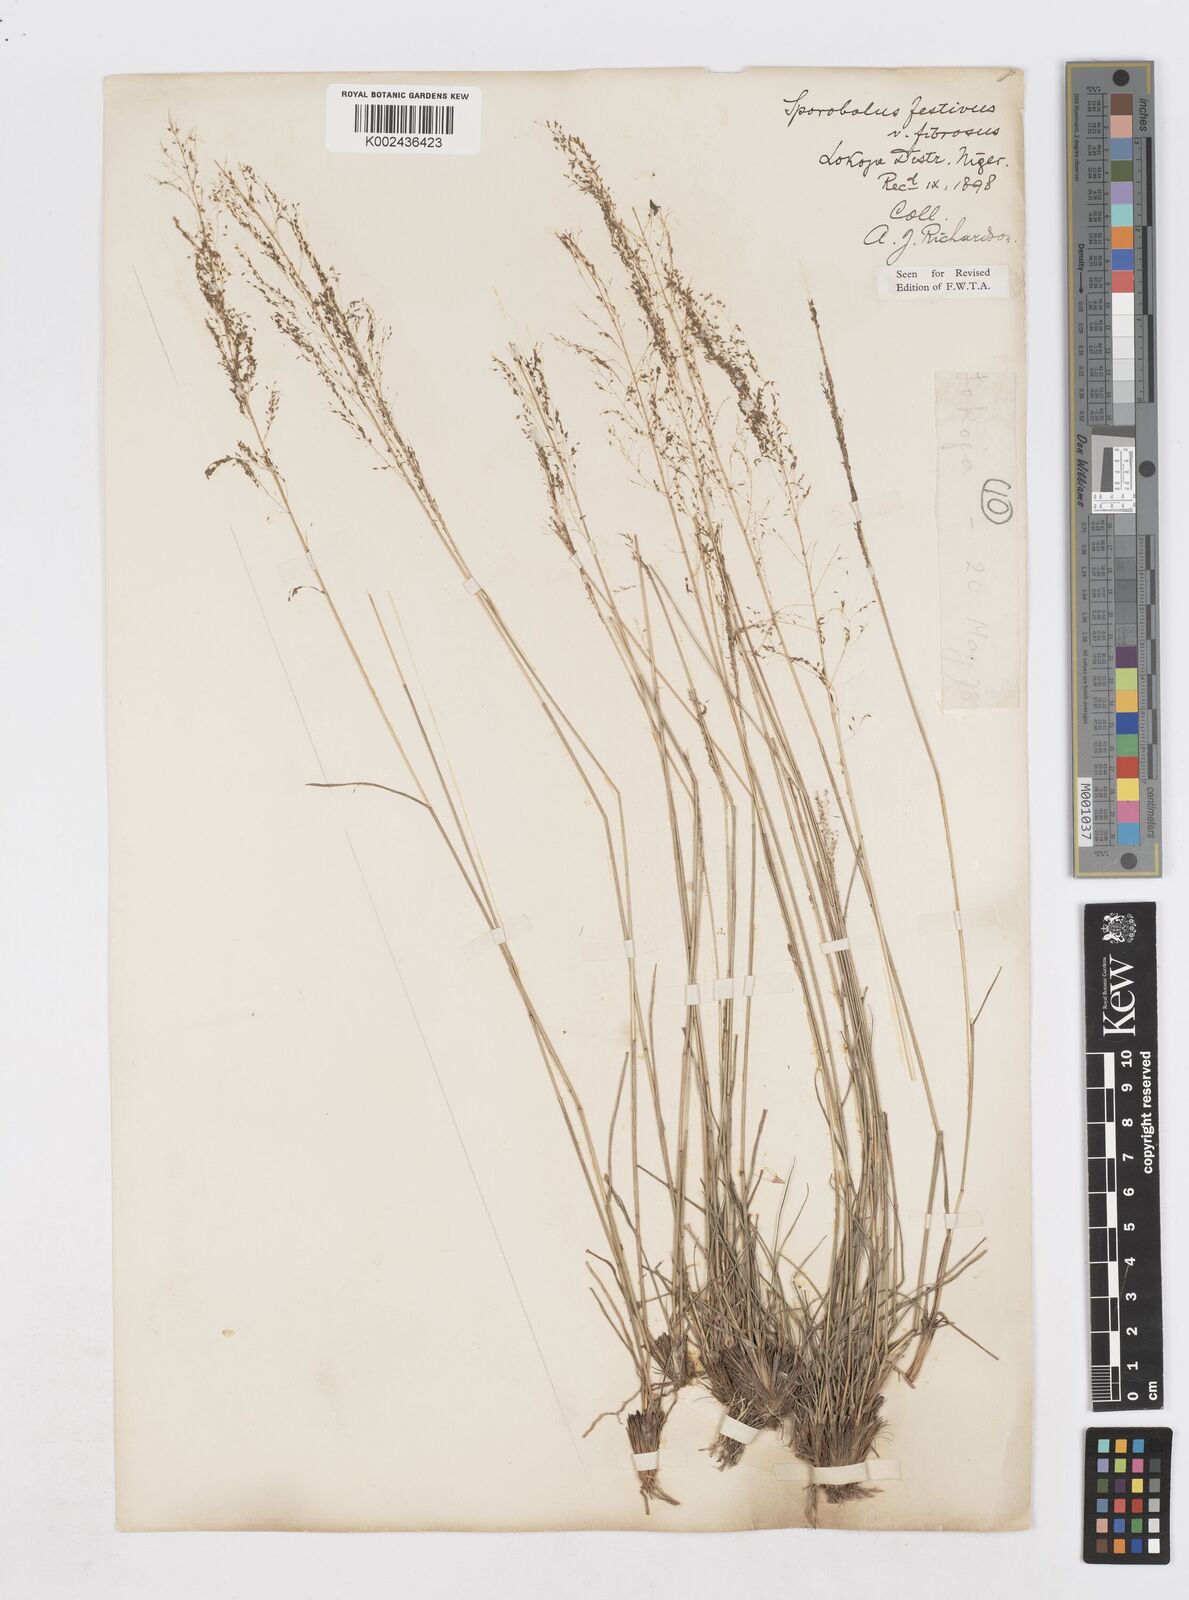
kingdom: Plantae
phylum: Tracheophyta
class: Liliopsida
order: Poales
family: Poaceae
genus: Sporobolus
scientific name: Sporobolus festivus
